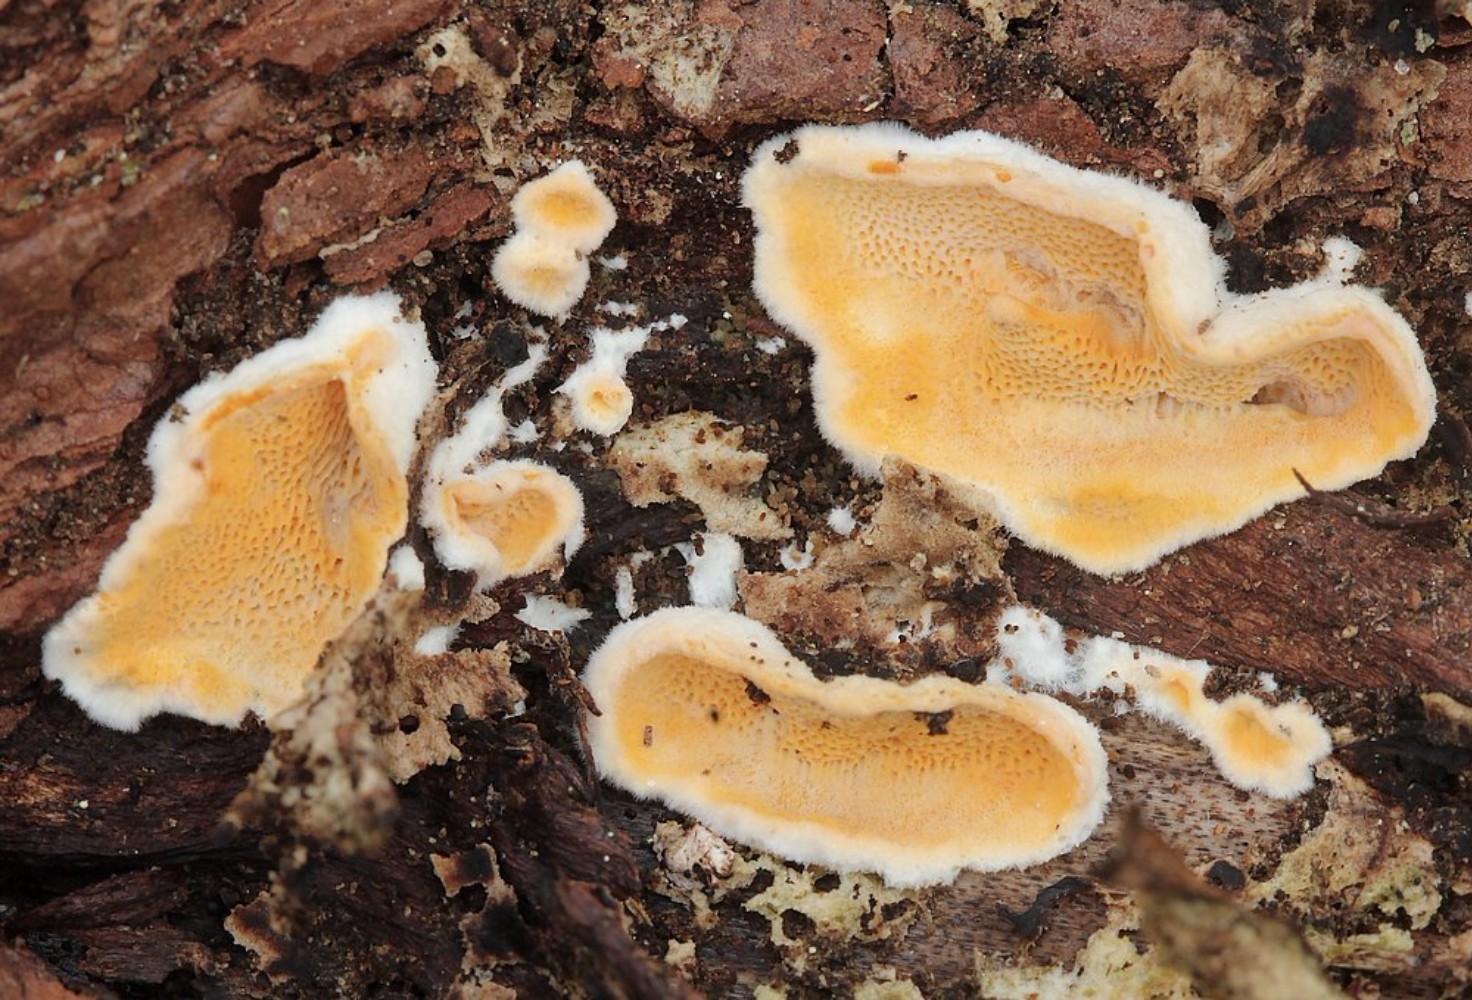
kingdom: Fungi
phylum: Basidiomycota
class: Agaricomycetes
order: Polyporales
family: Incrustoporiaceae
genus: Skeletocutis
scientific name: Skeletocutis amorpha
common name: orange krystalporesvamp
